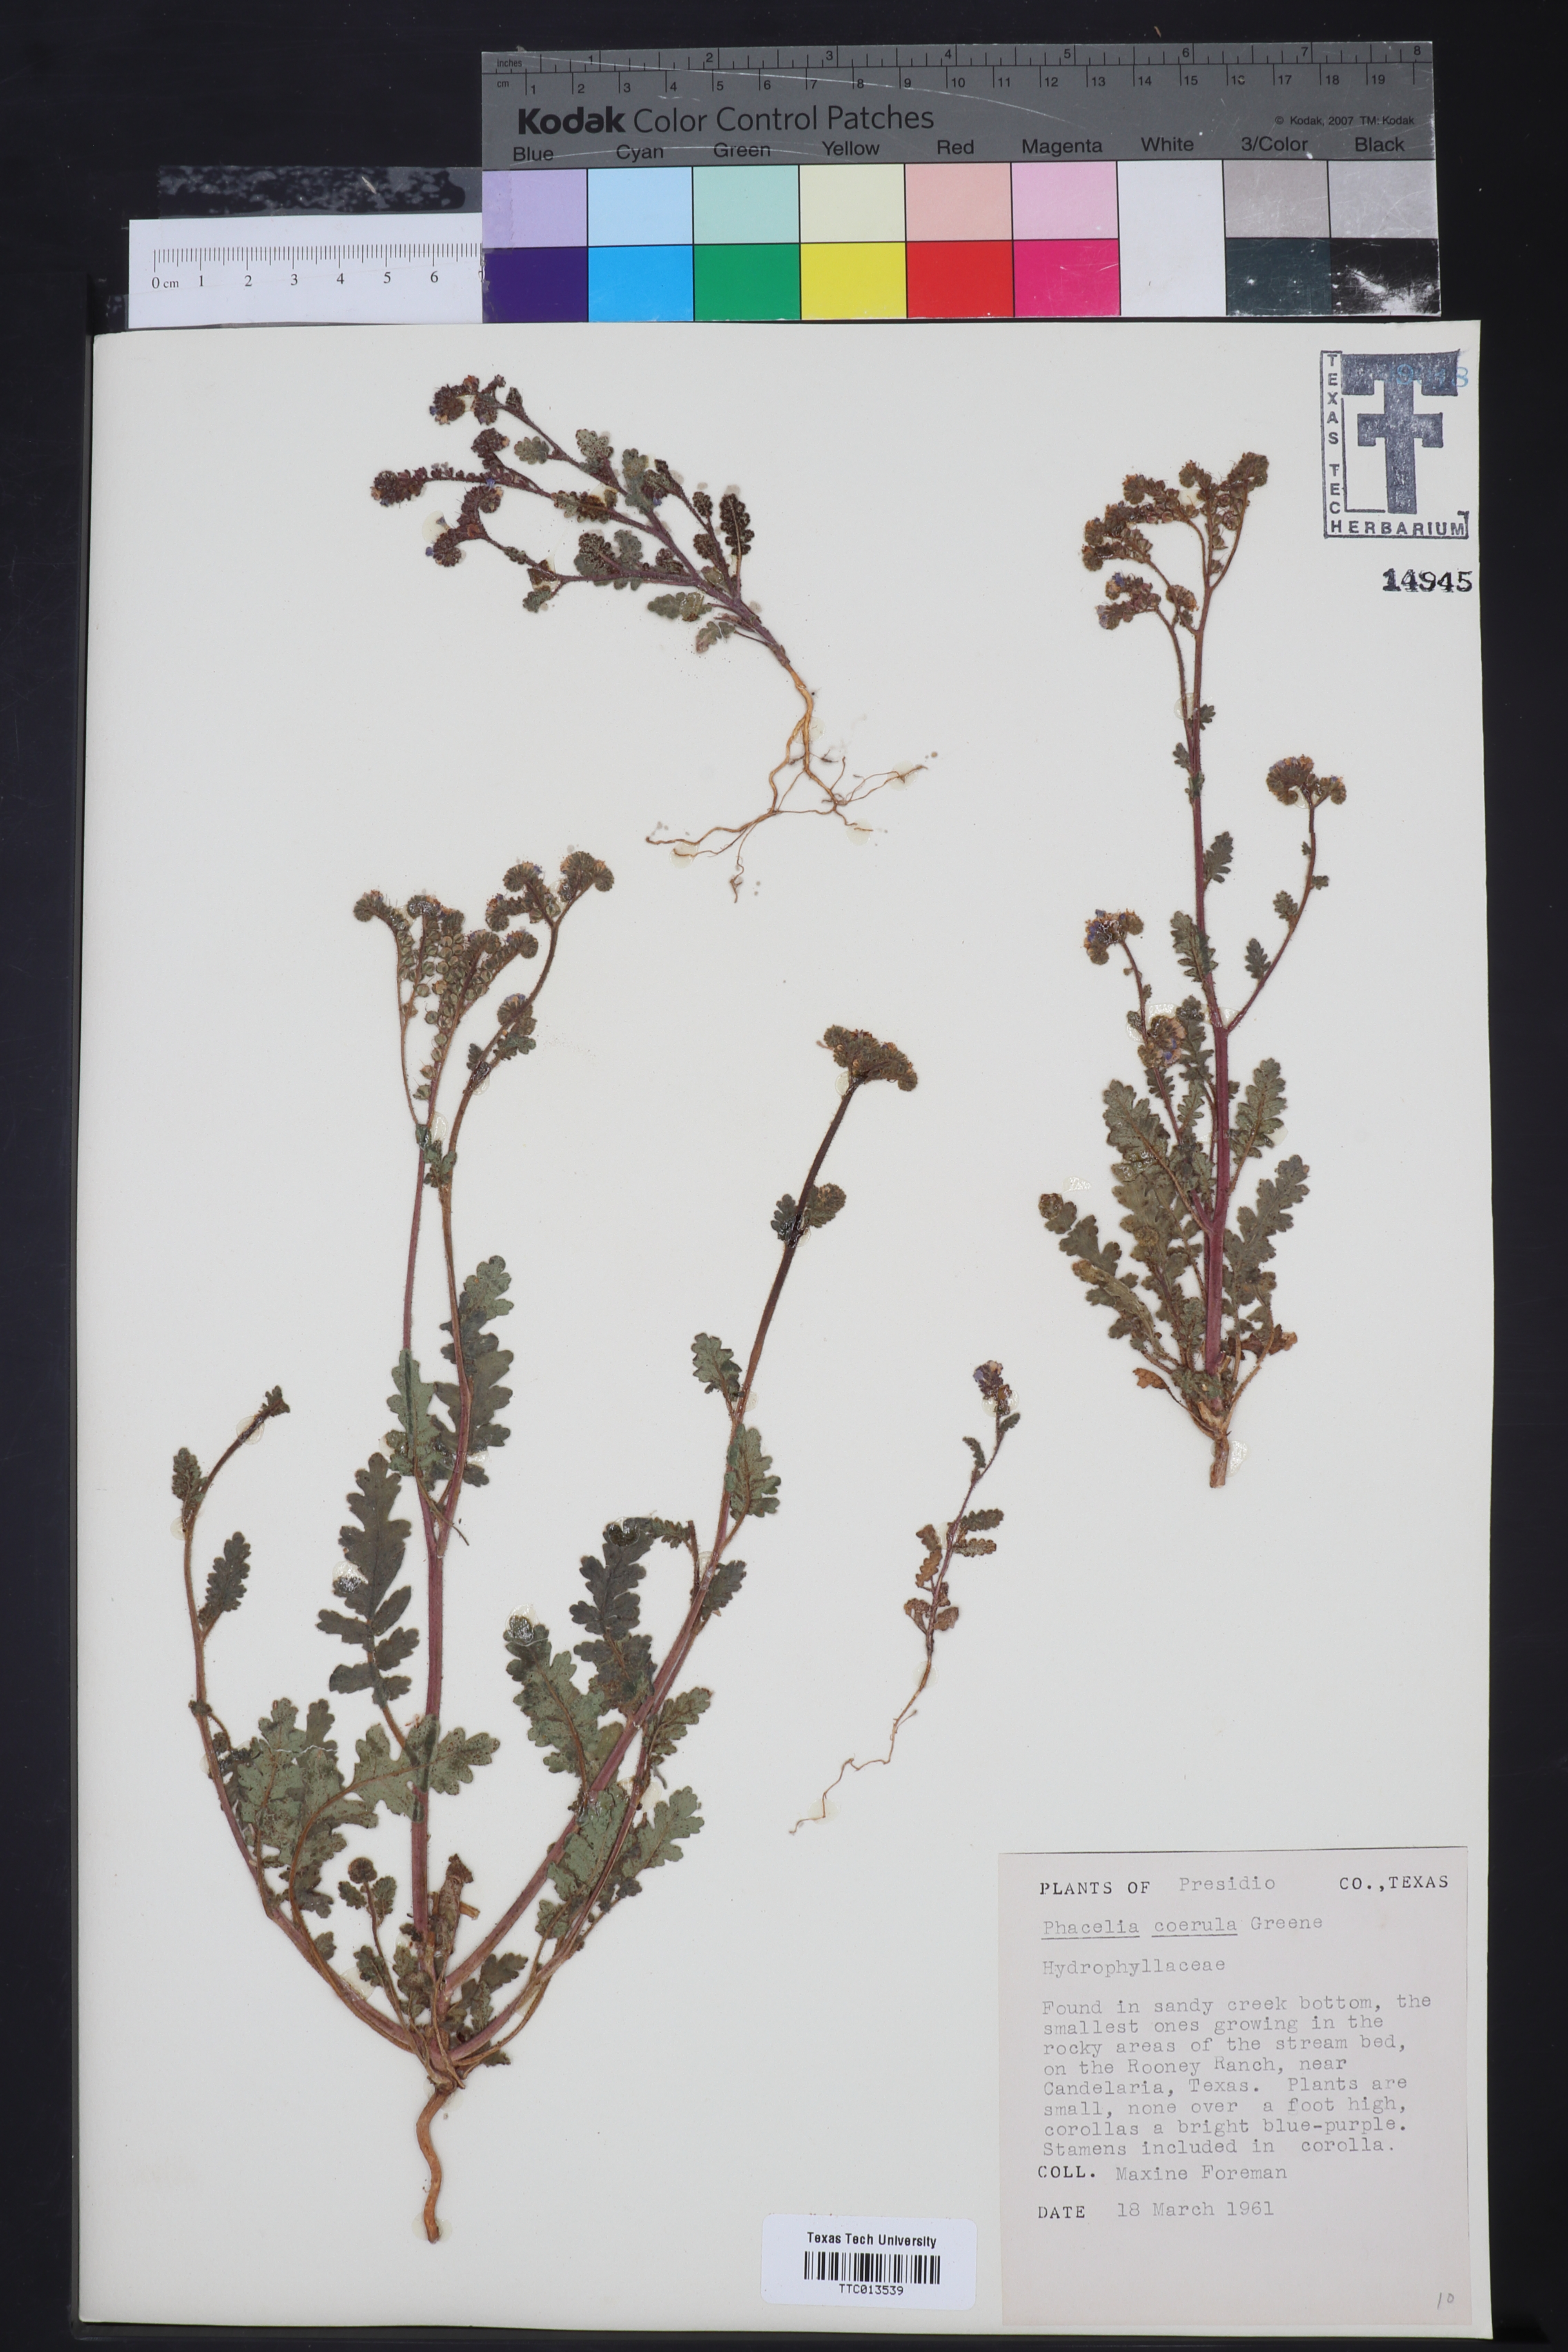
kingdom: Plantae
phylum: Tracheophyta
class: Magnoliopsida
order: Boraginales
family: Hydrophyllaceae
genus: Phacelia
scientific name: Phacelia coerulea
